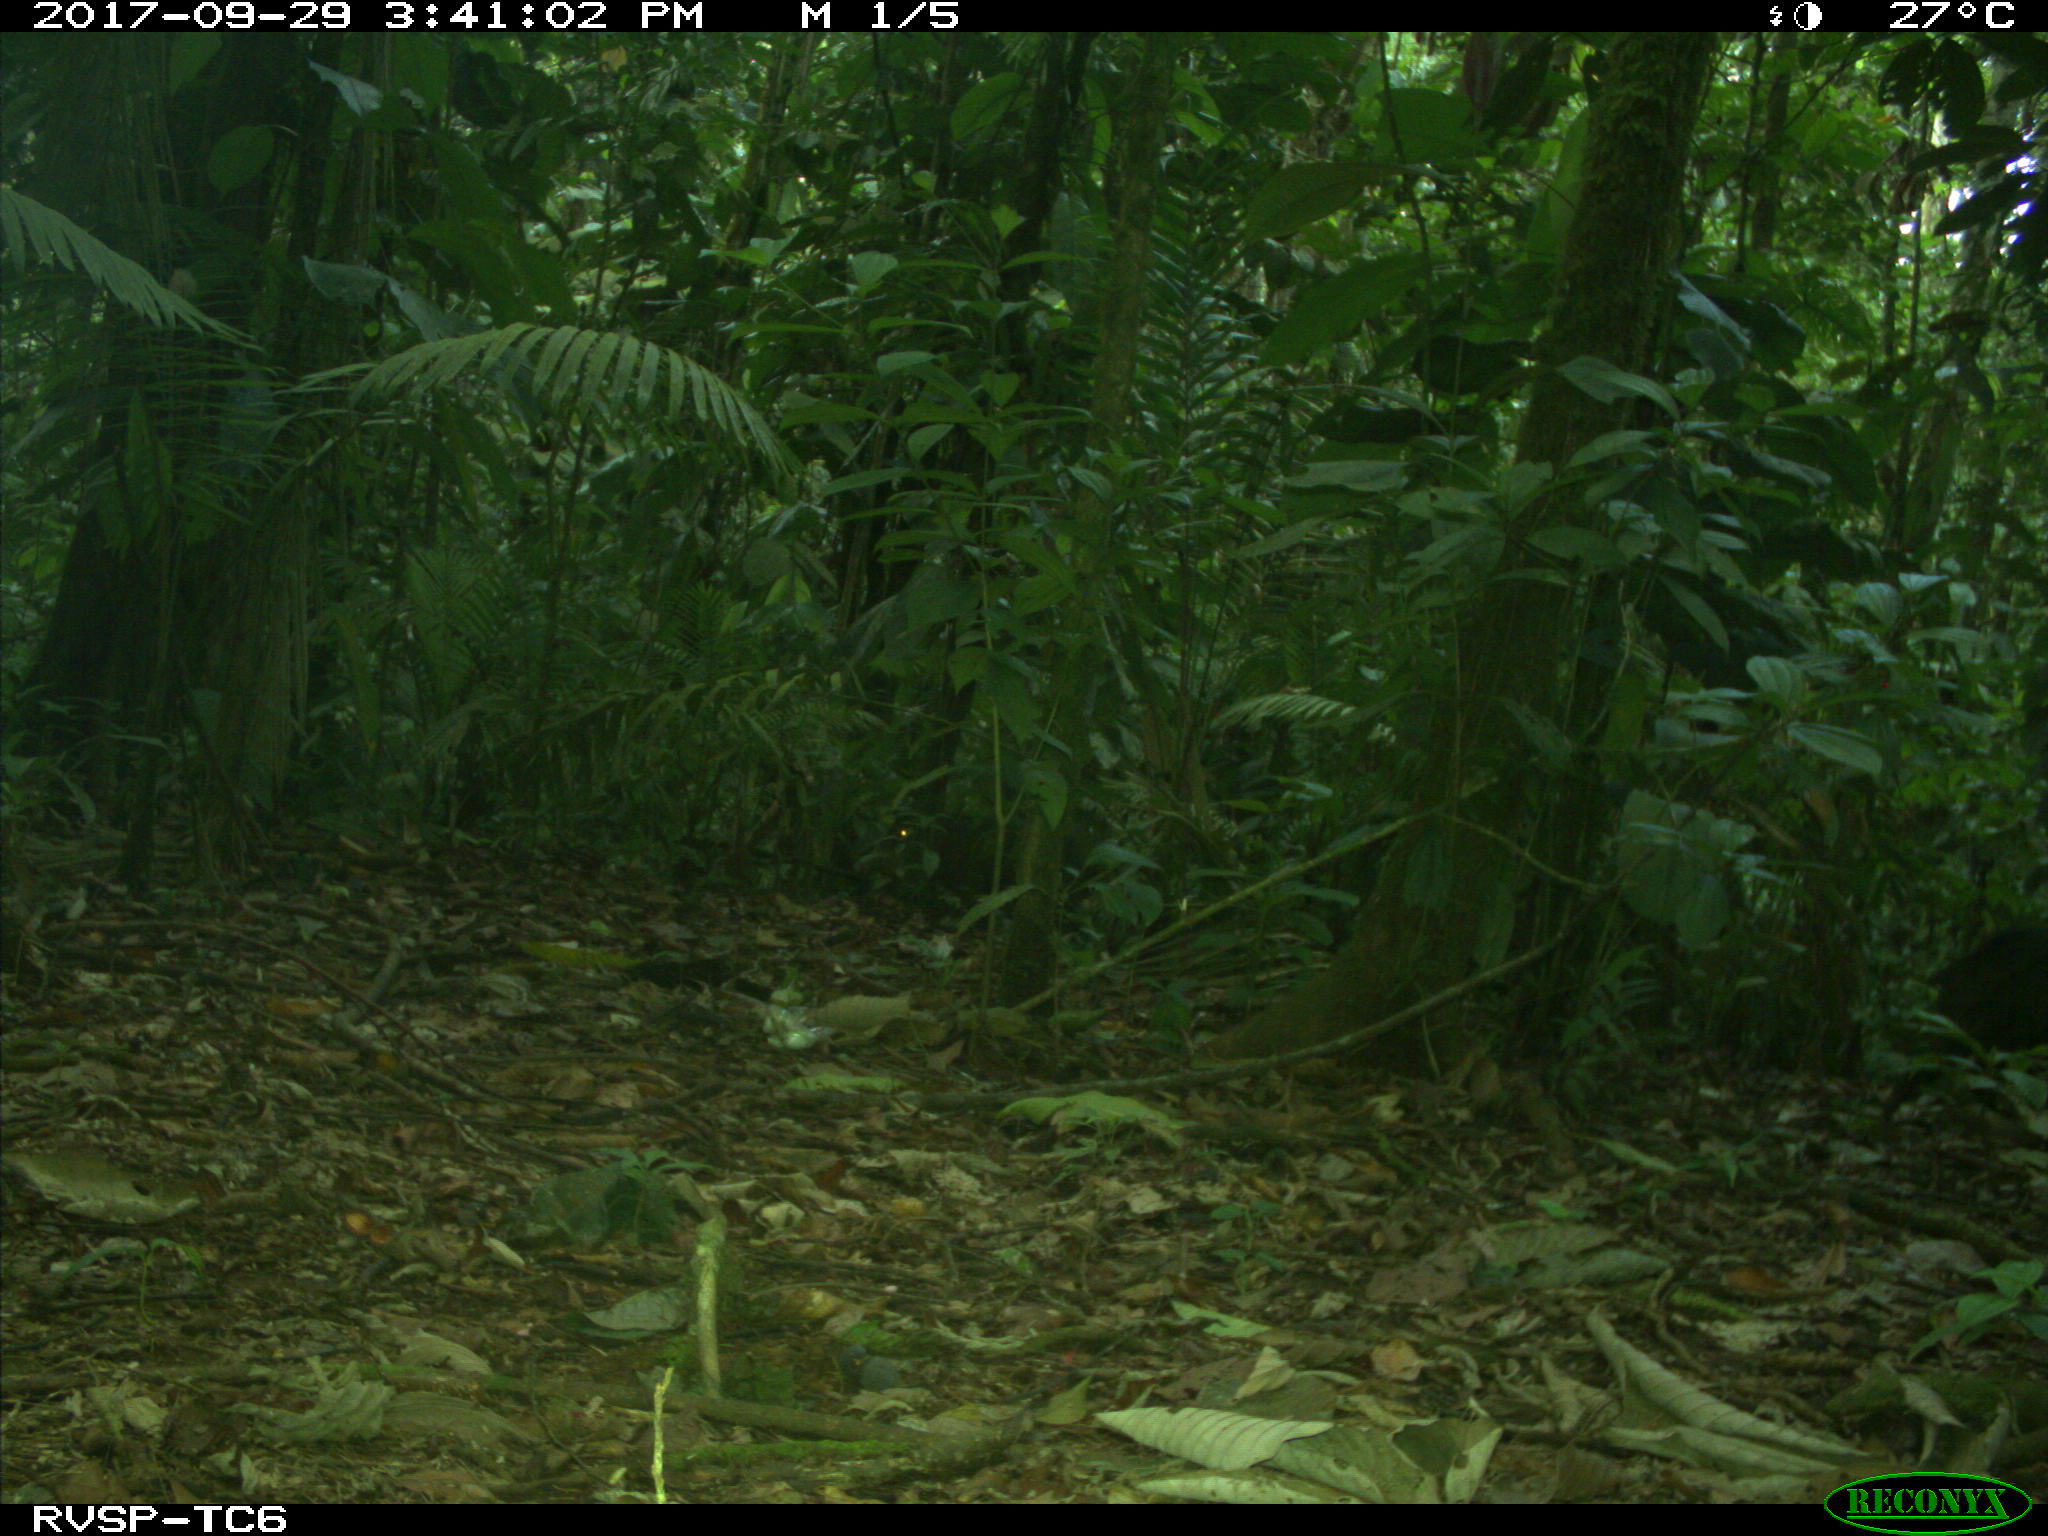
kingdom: Animalia
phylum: Chordata
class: Mammalia
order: Artiodactyla
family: Tayassuidae
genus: Tayassu
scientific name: Tayassu pecari
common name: White-lipped peccary
